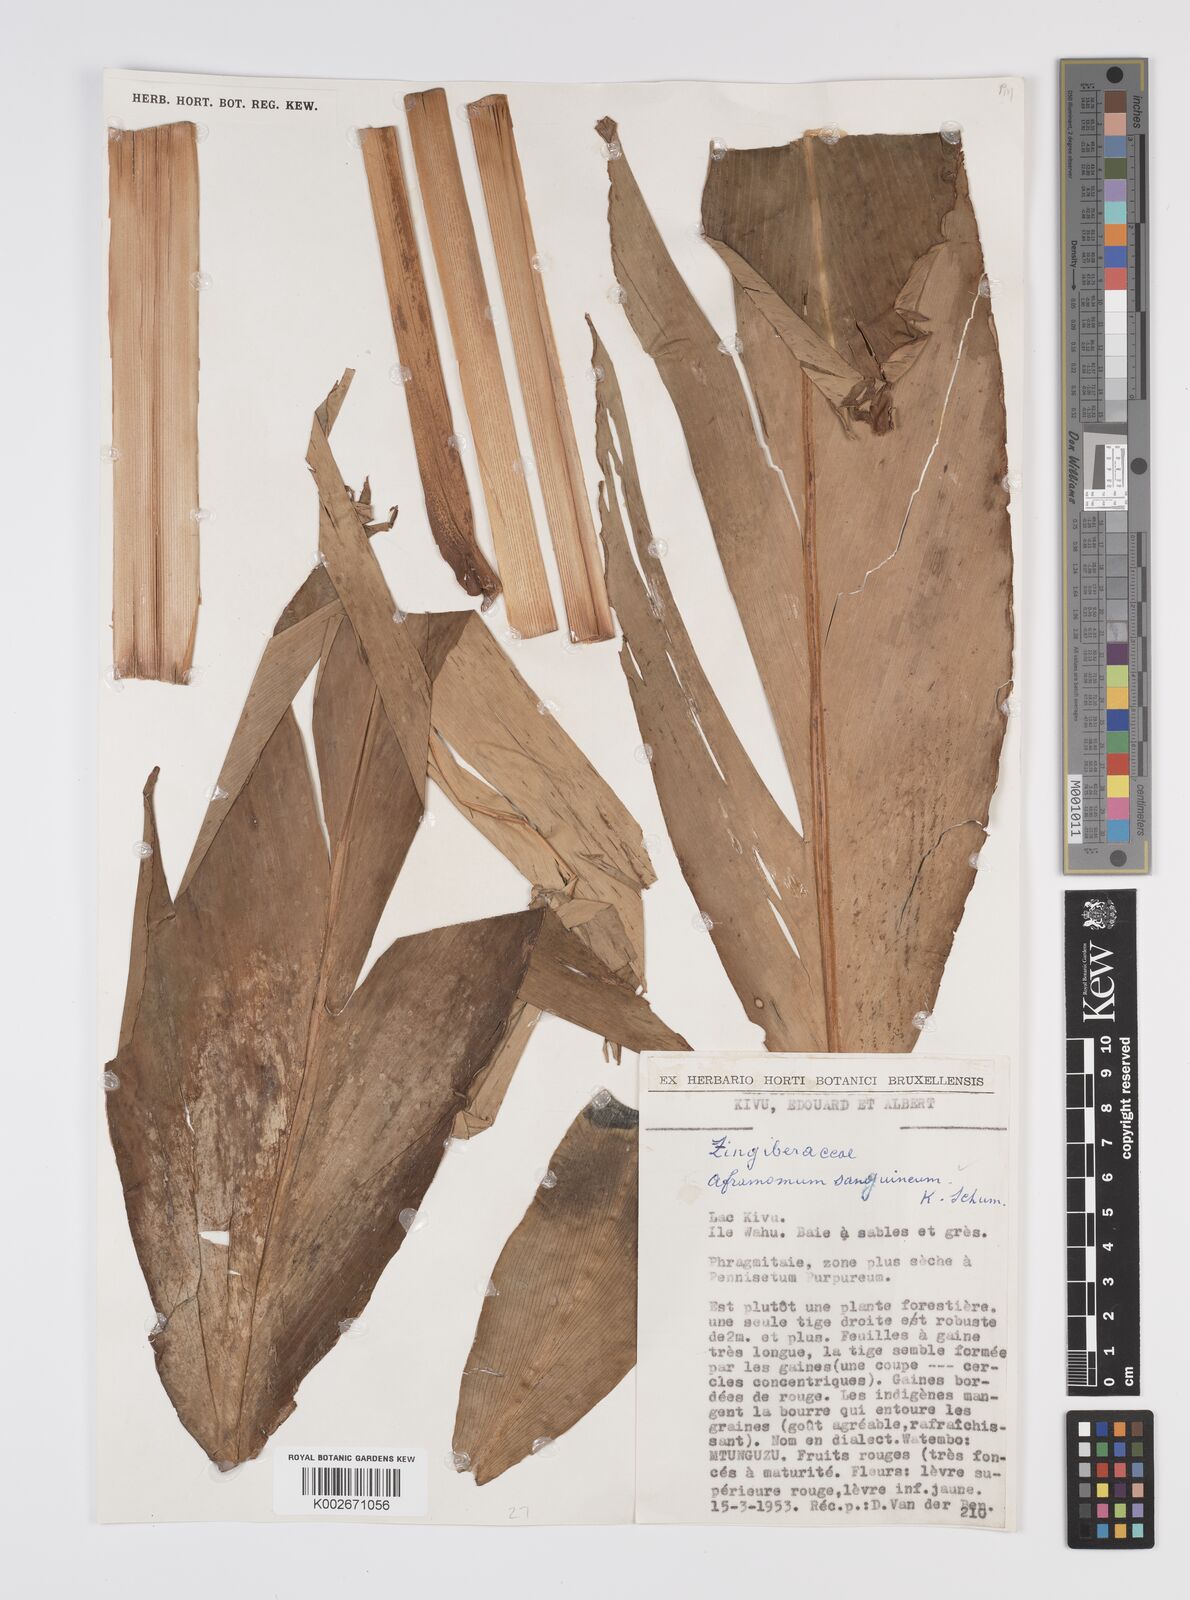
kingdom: Plantae
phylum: Tracheophyta
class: Liliopsida
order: Zingiberales
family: Zingiberaceae
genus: Aframomum
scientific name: Aframomum angustifolium
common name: Guinea grains
